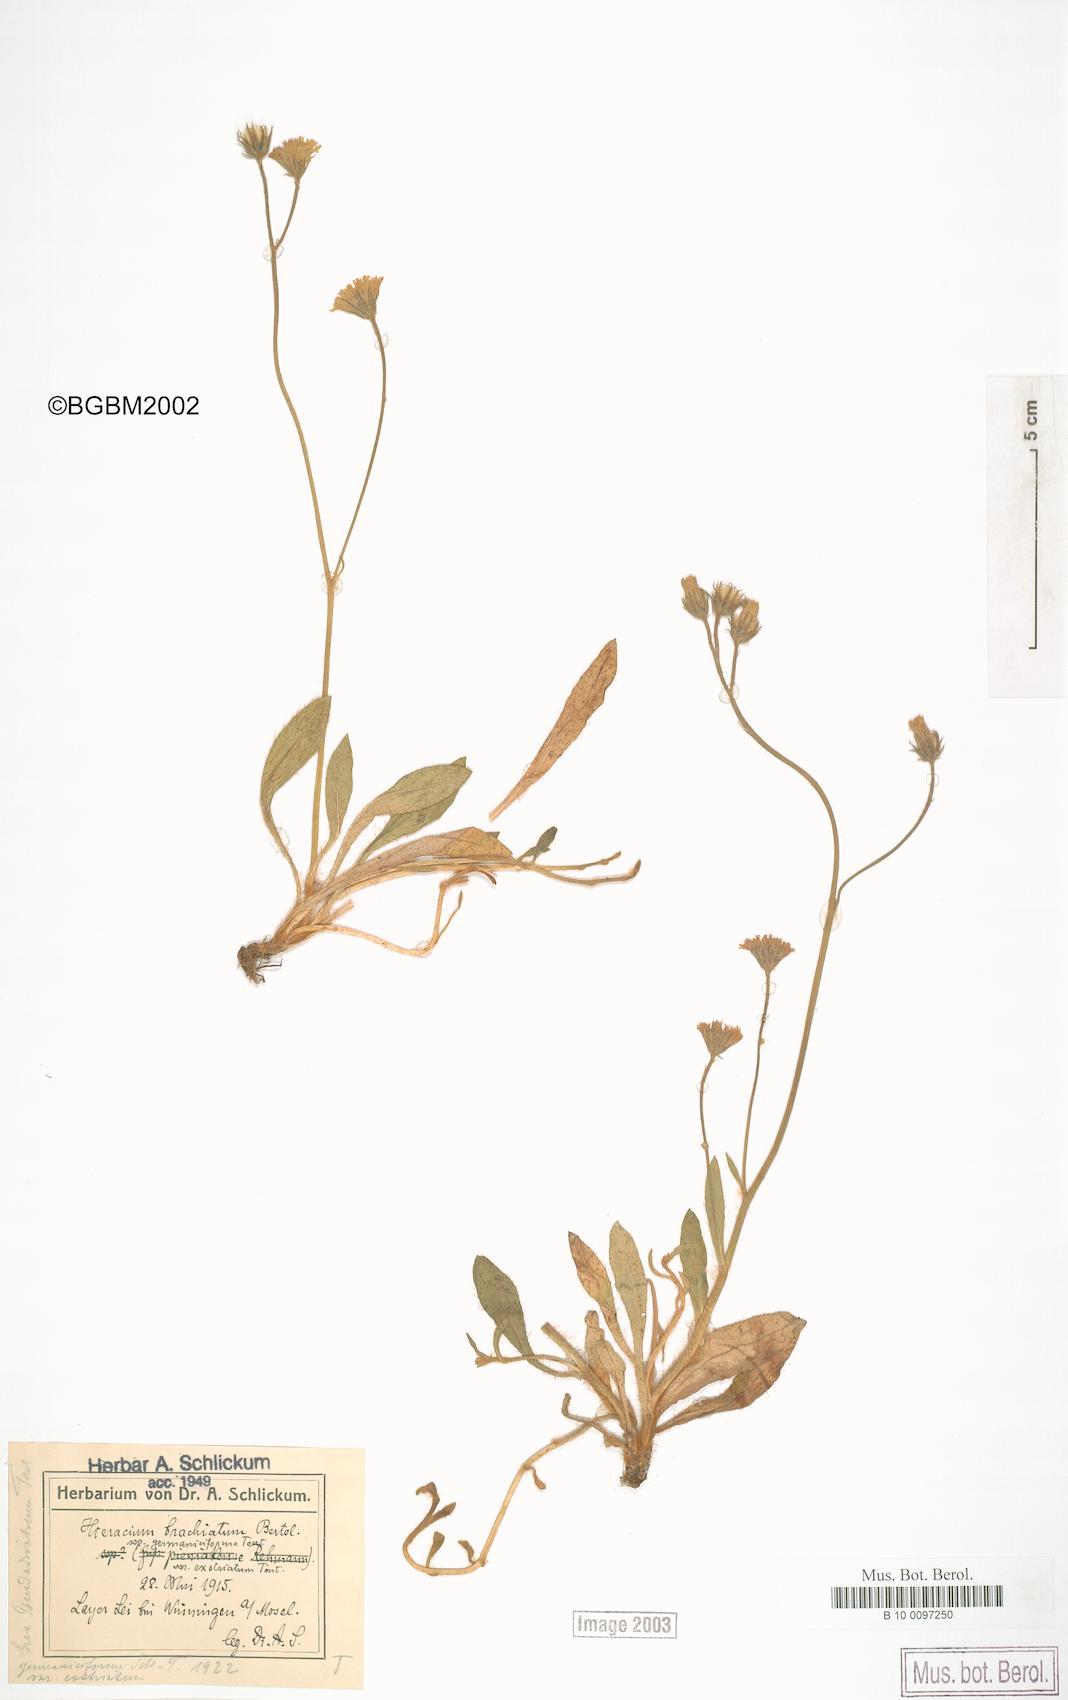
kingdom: Plantae
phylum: Tracheophyta
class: Magnoliopsida
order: Asterales
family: Asteraceae
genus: Pilosella
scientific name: Pilosella acutifolia
